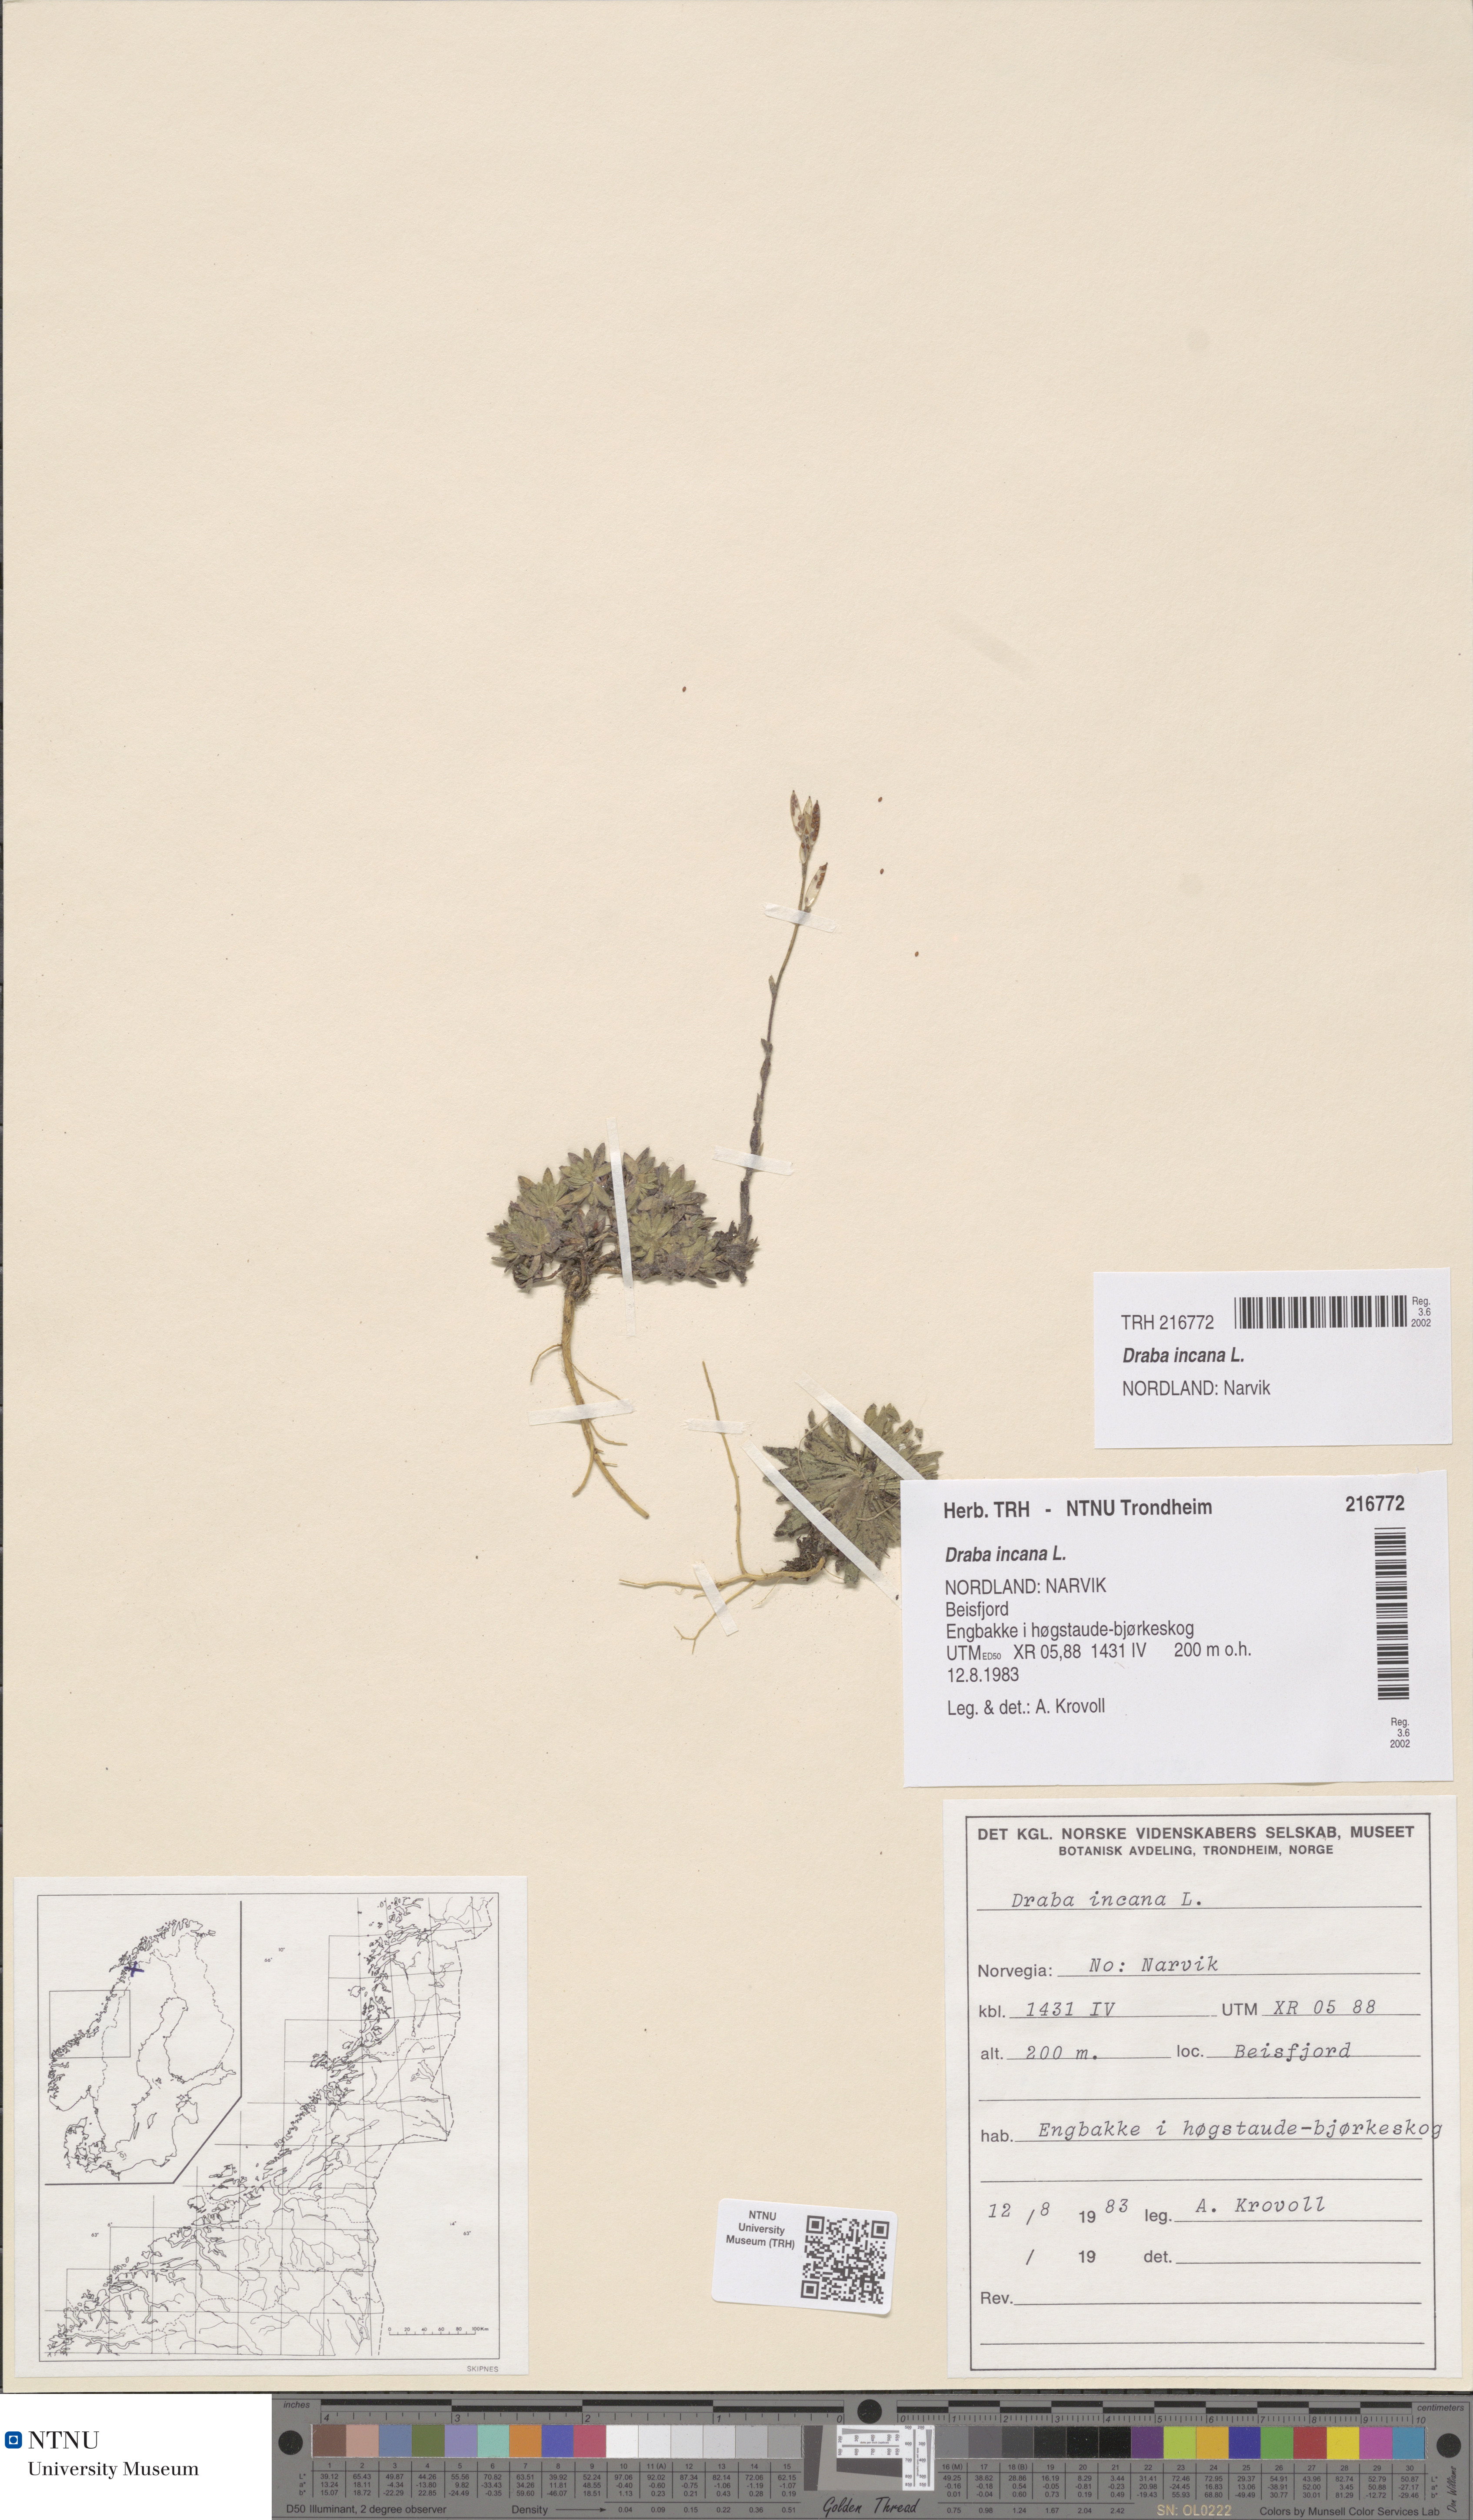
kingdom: Plantae
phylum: Tracheophyta
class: Magnoliopsida
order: Brassicales
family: Brassicaceae
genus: Draba
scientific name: Draba incana
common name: Hoary whitlow-grass
